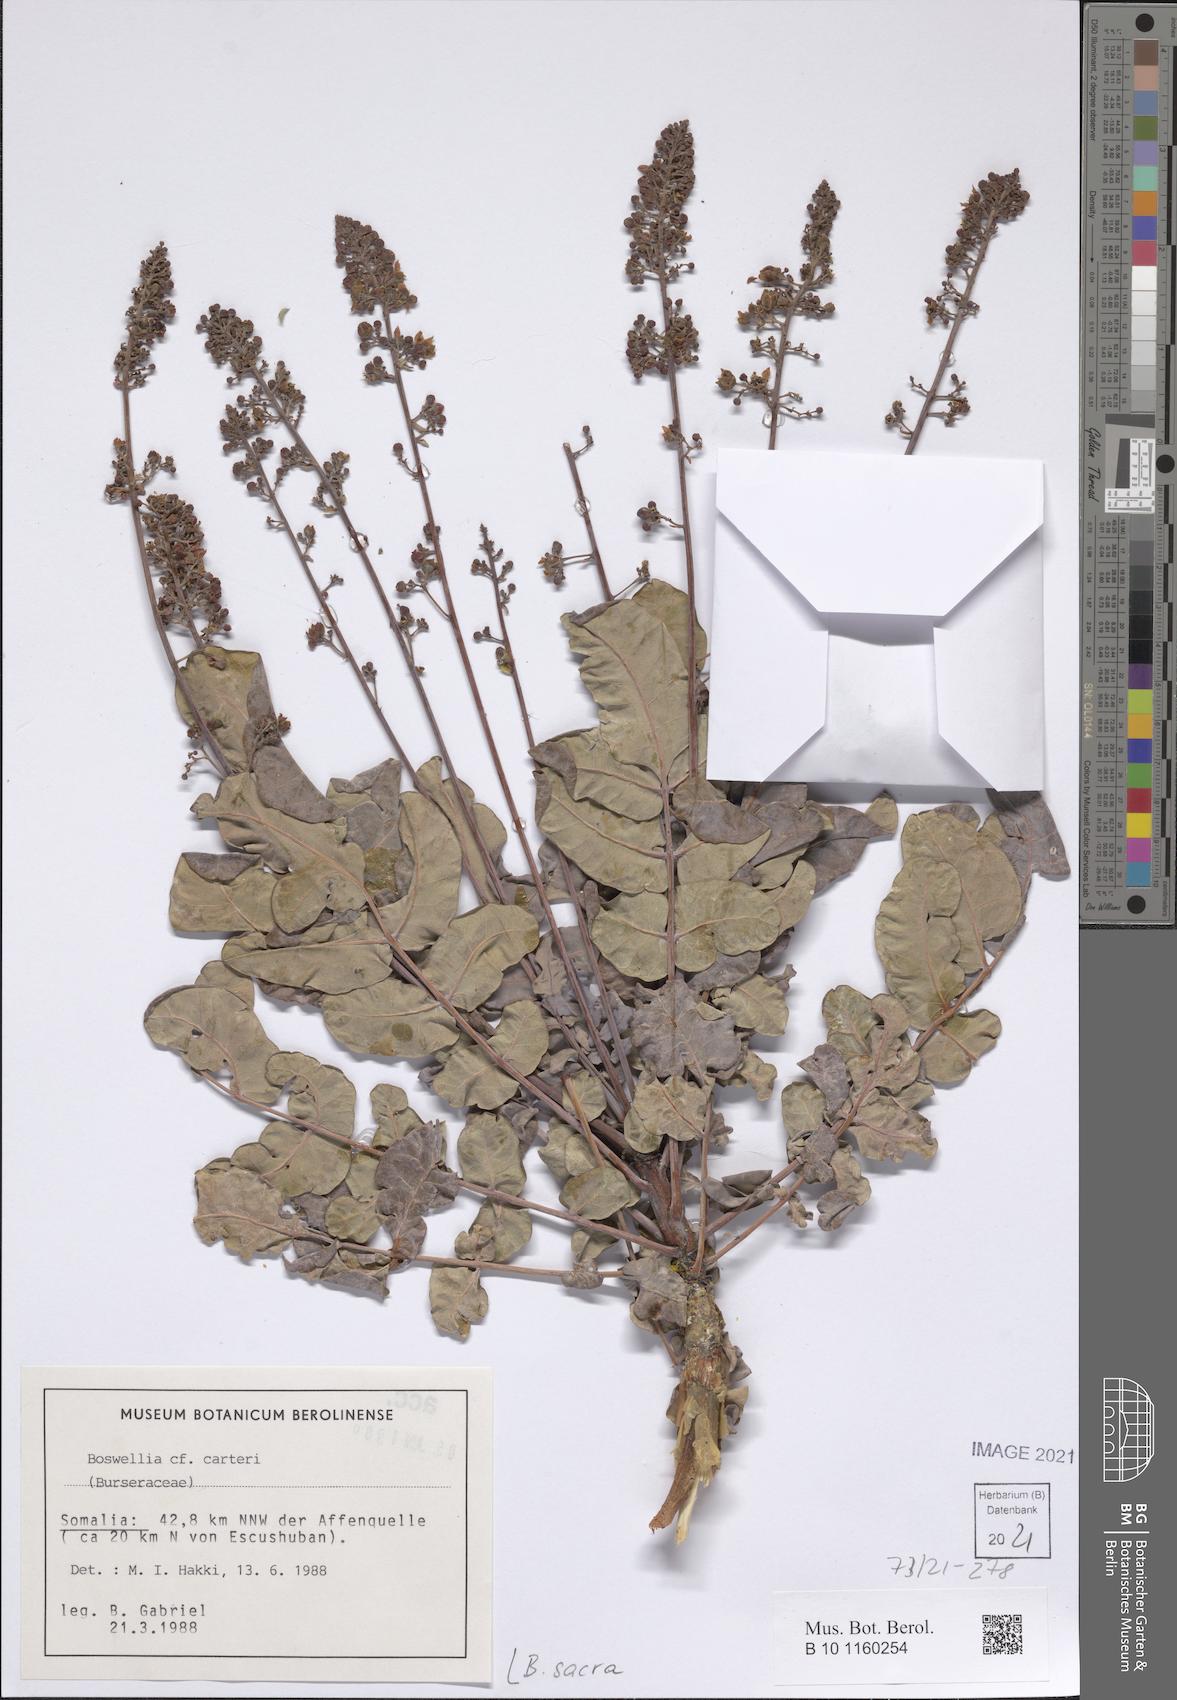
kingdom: Plantae
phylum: Tracheophyta
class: Magnoliopsida
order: Sapindales
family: Burseraceae
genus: Boswellia
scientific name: Boswellia sacra
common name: Olibanum-tree
